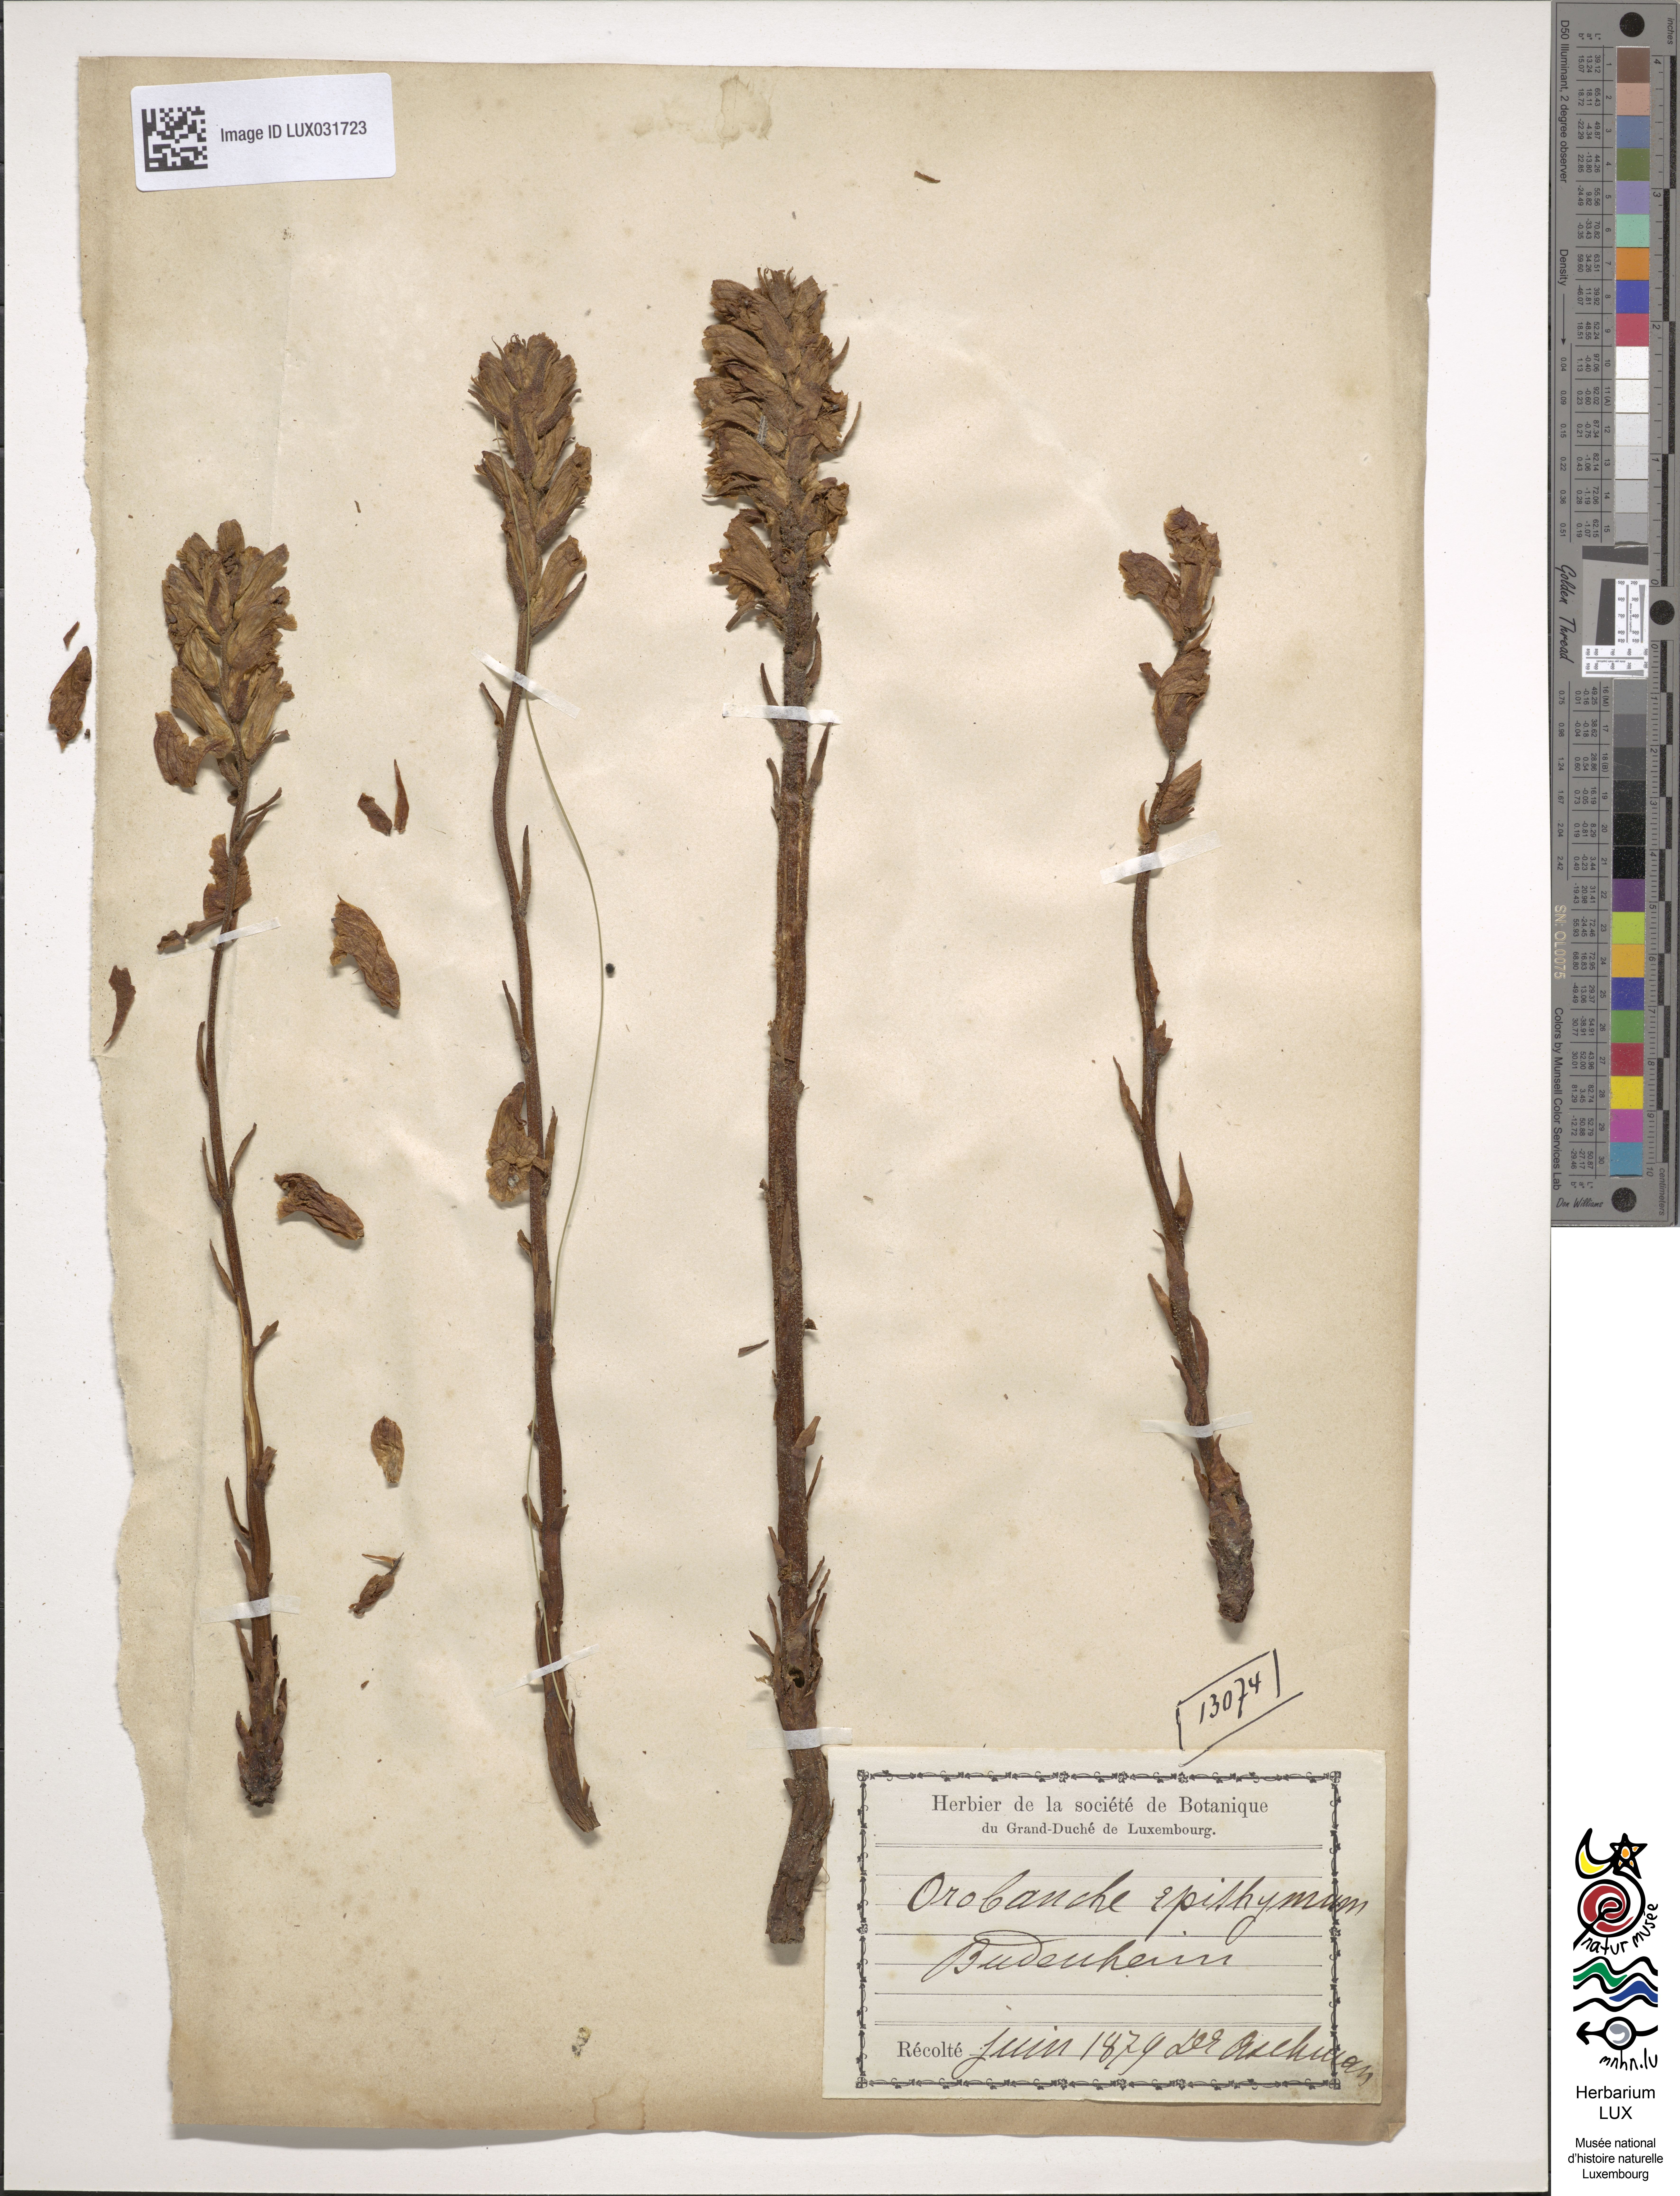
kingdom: Plantae
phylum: Tracheophyta
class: Magnoliopsida
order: Lamiales
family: Orobanchaceae
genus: Orobanche
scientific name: Orobanche alba
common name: Thyme broomrape
